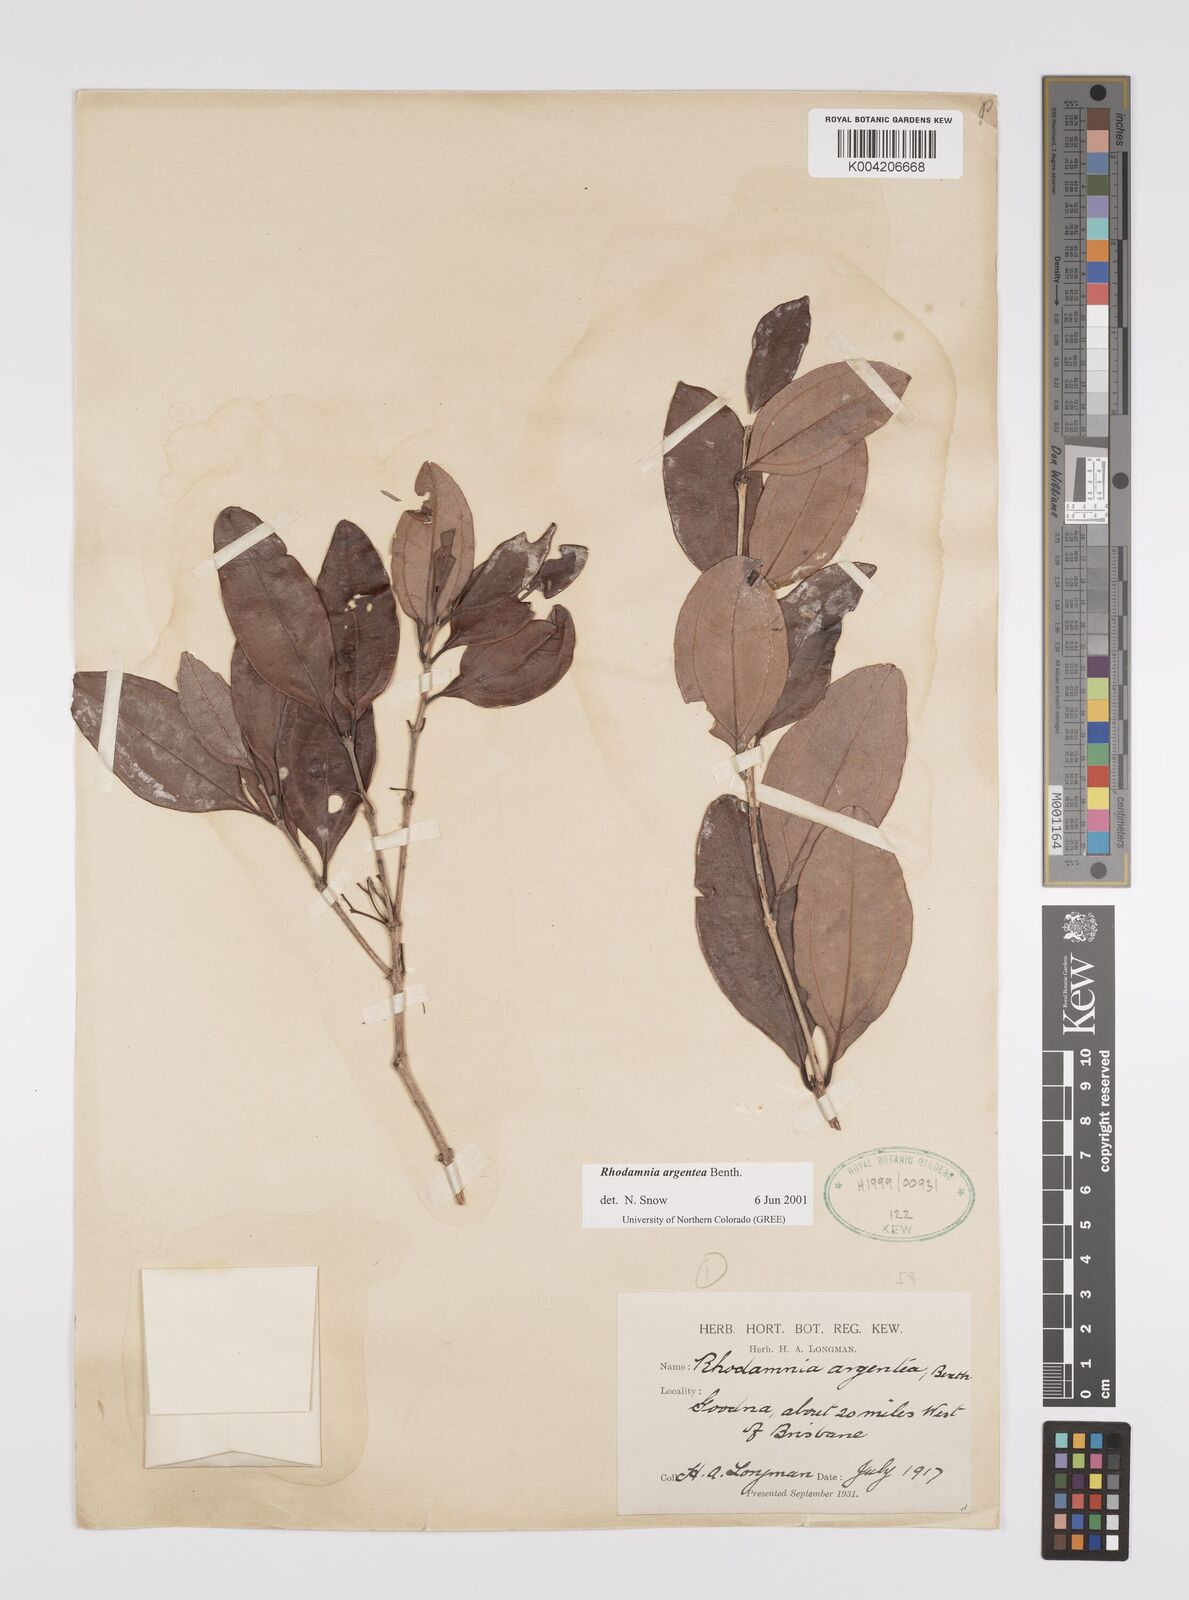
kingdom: Plantae
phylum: Tracheophyta
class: Magnoliopsida
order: Myrtales
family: Myrtaceae
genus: Rhodamnia
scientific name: Rhodamnia argentea
